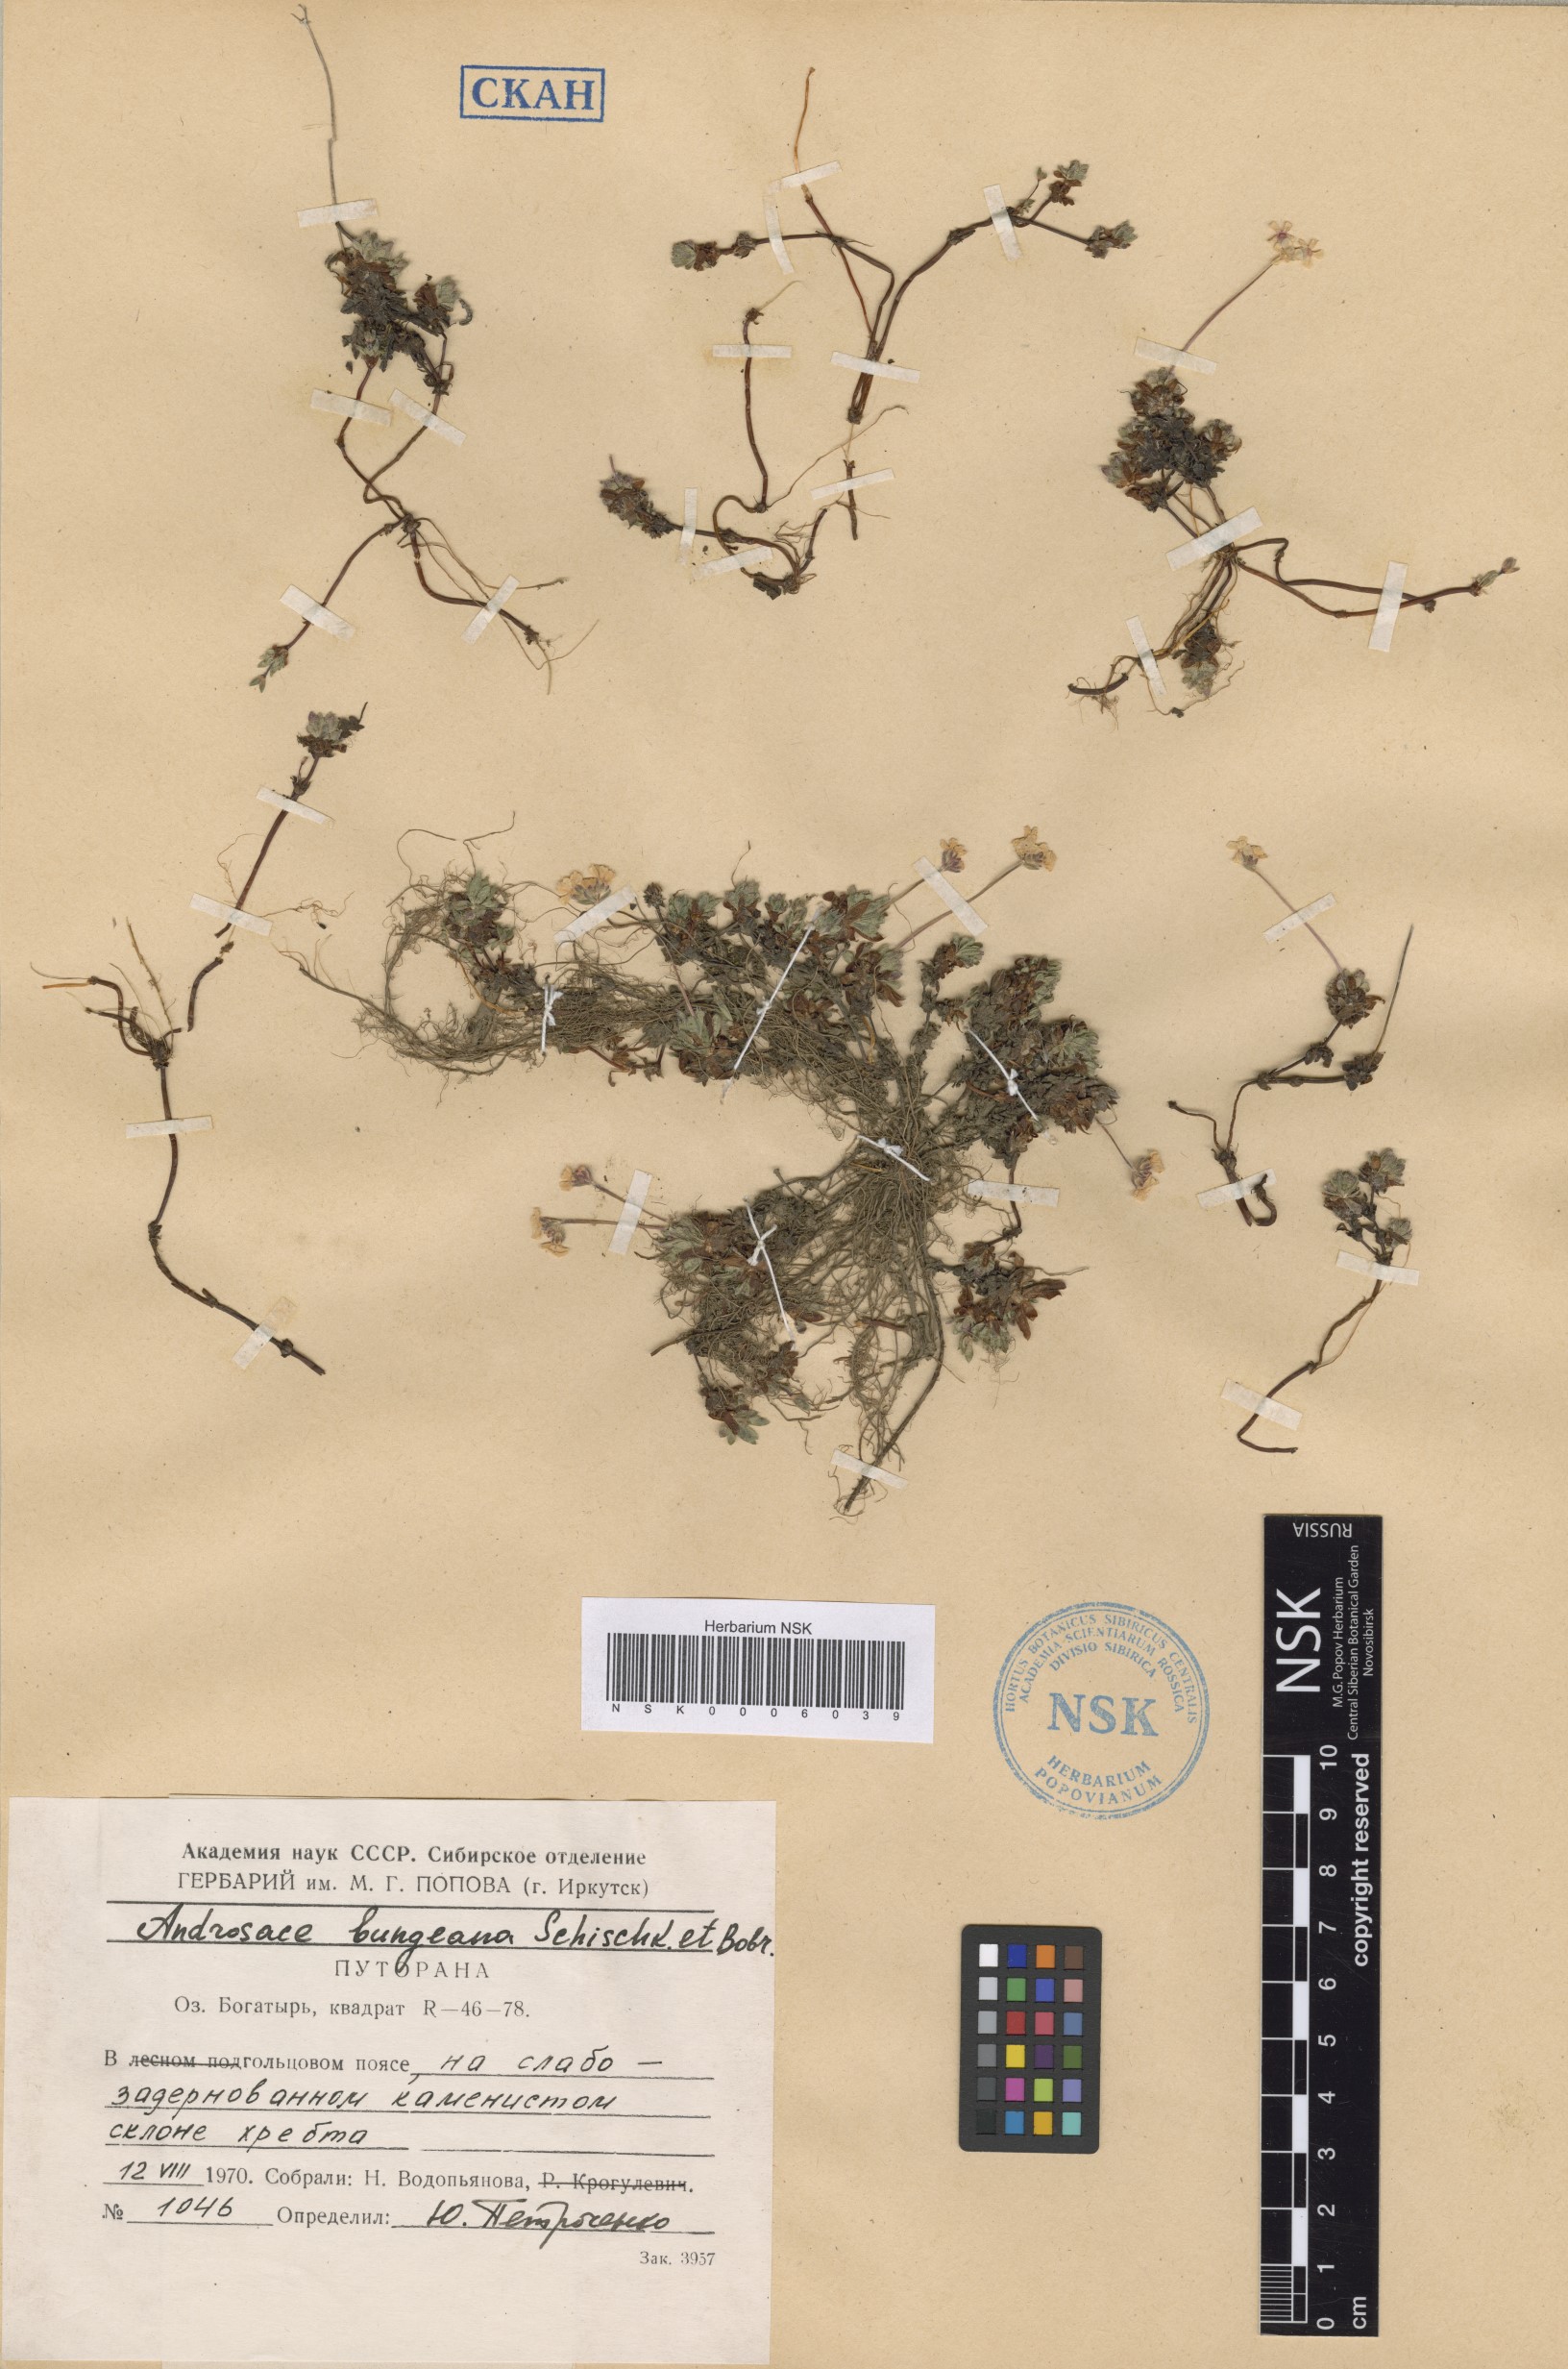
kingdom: Plantae
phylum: Tracheophyta
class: Magnoliopsida
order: Ericales
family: Primulaceae
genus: Androsace
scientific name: Androsace bungeana
